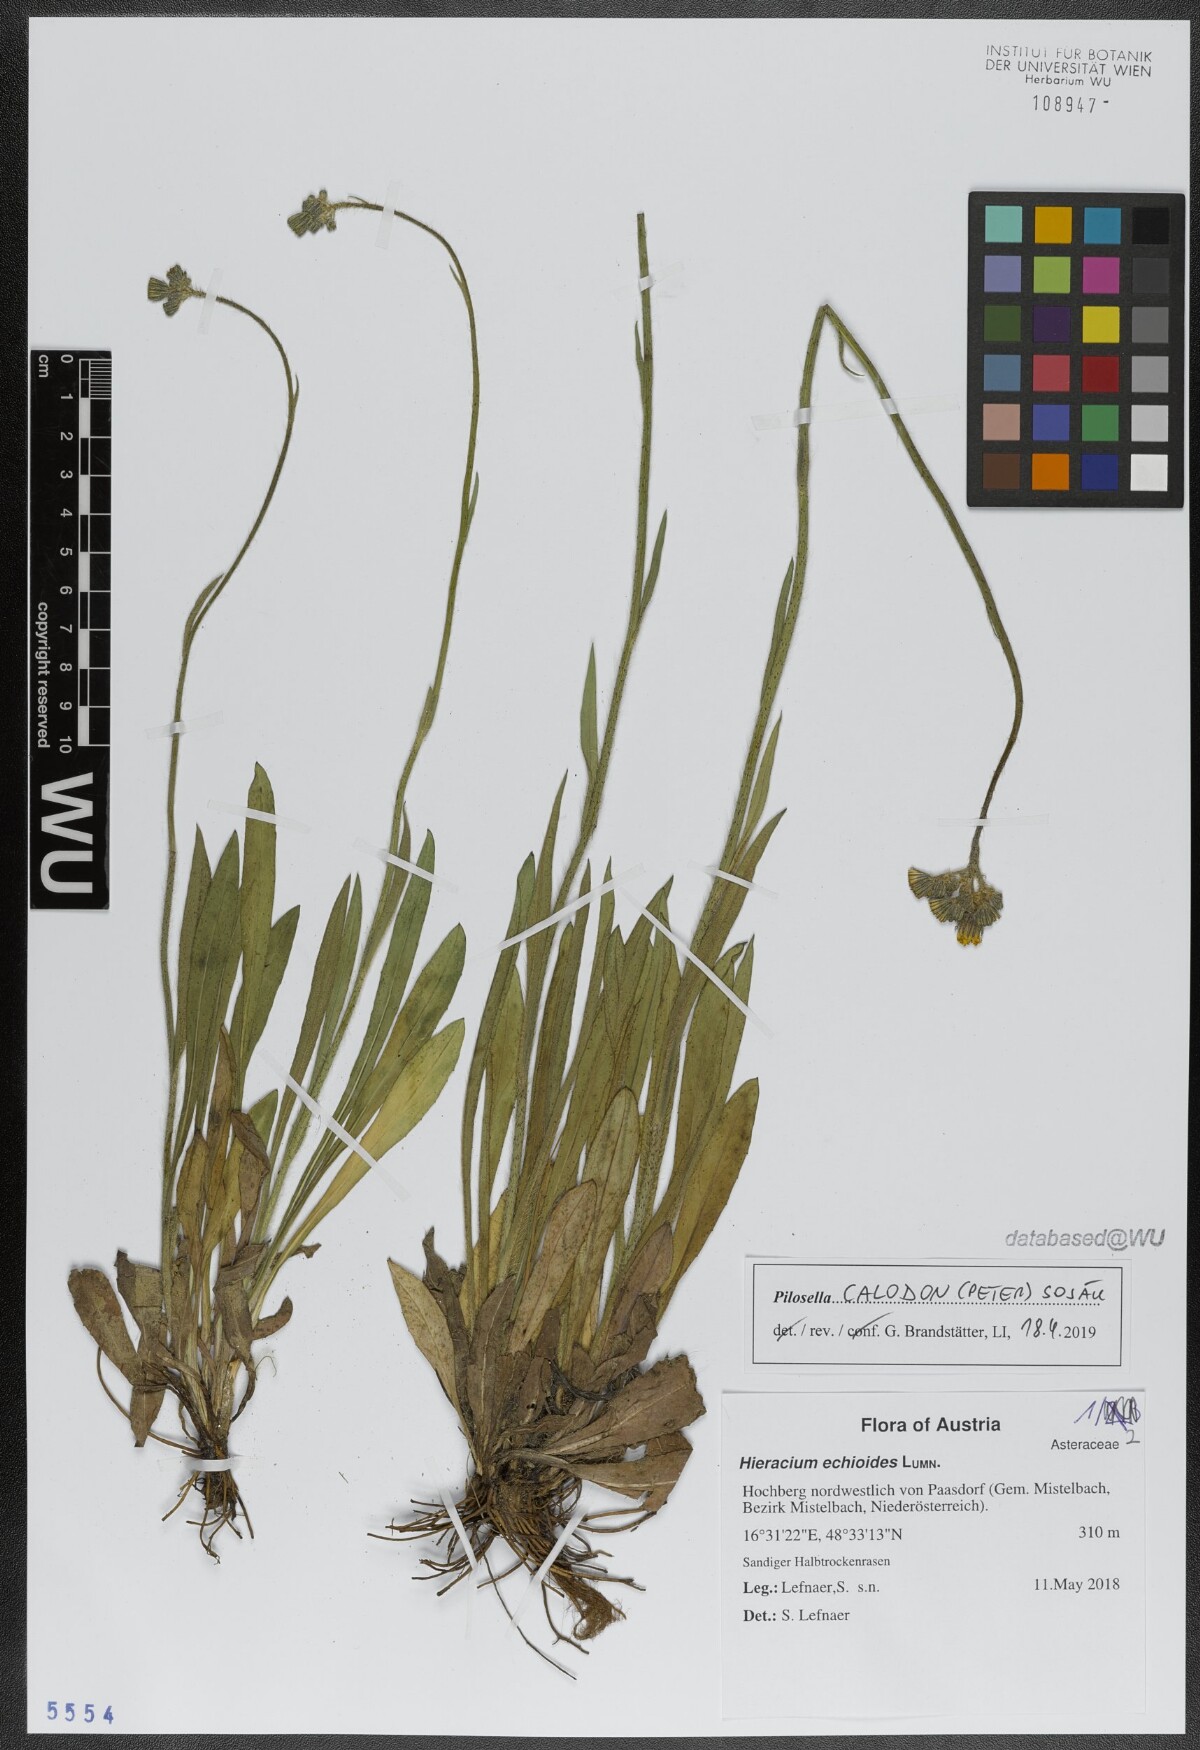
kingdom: Plantae
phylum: Tracheophyta
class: Magnoliopsida
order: Asterales
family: Asteraceae
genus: Pilosella
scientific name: Pilosella calodon
